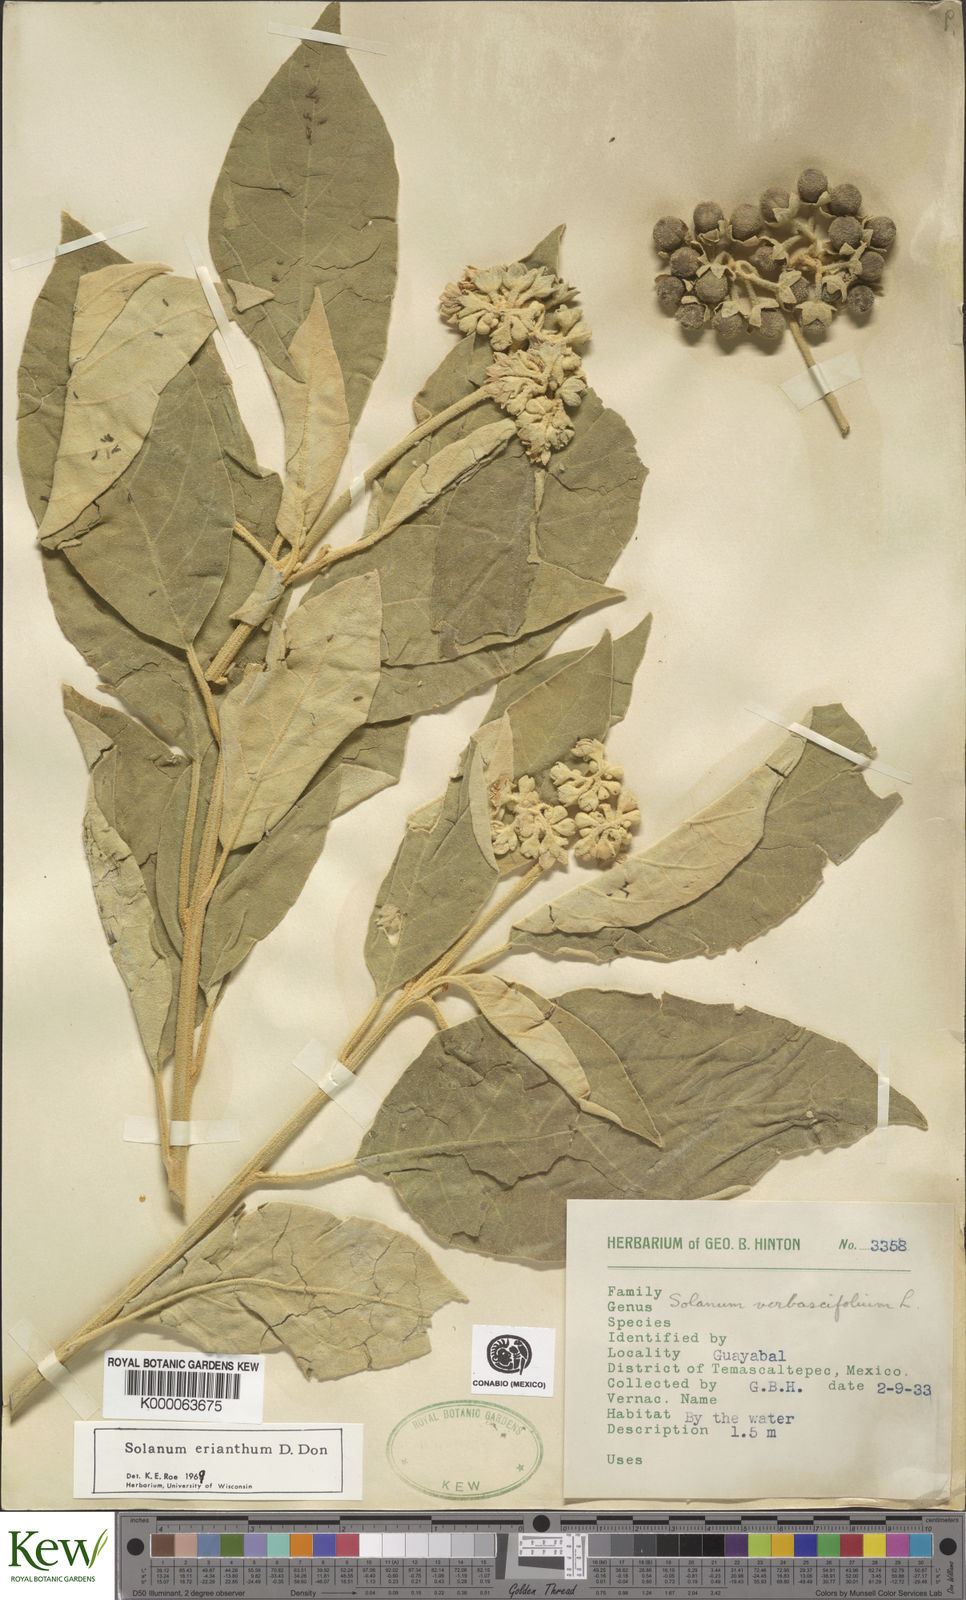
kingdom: Plantae
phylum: Tracheophyta
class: Magnoliopsida
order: Solanales
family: Solanaceae
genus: Solanum
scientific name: Solanum erianthum
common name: Tobacco-tree
